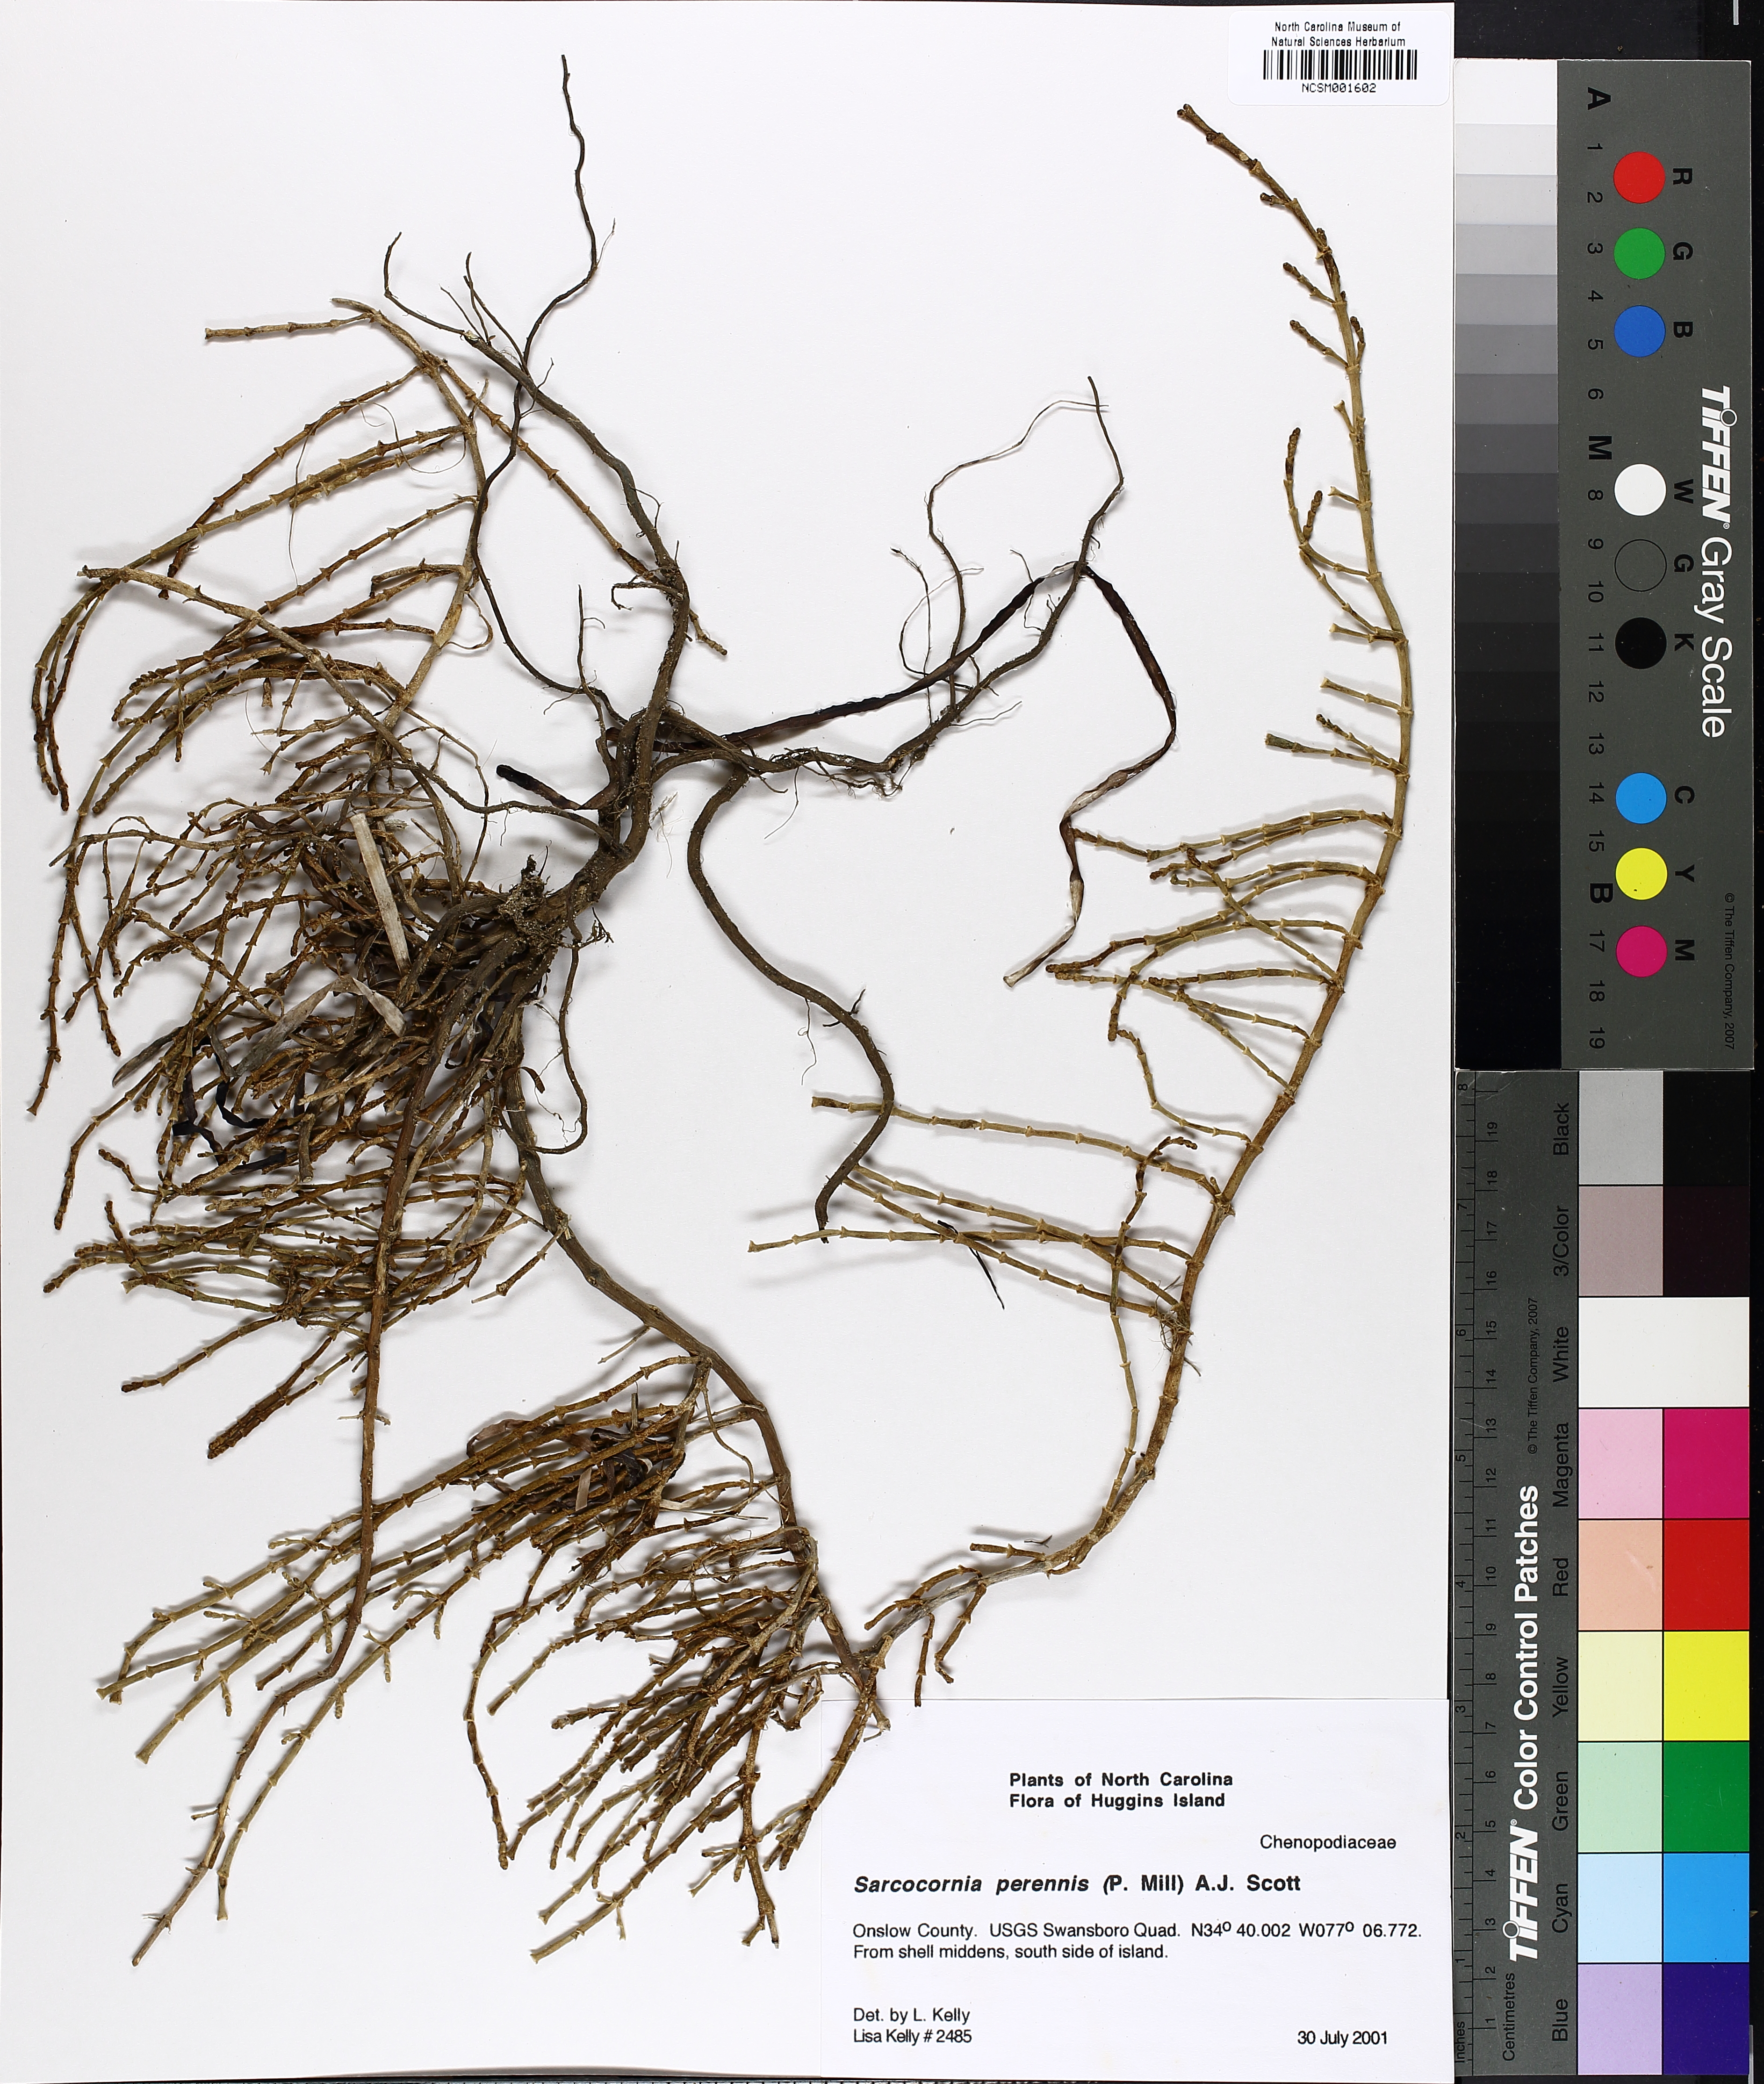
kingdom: Plantae
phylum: Tracheophyta
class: Magnoliopsida
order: Caryophyllales
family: Amaranthaceae
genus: Salicornia
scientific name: Salicornia perennis
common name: Chicken claws
